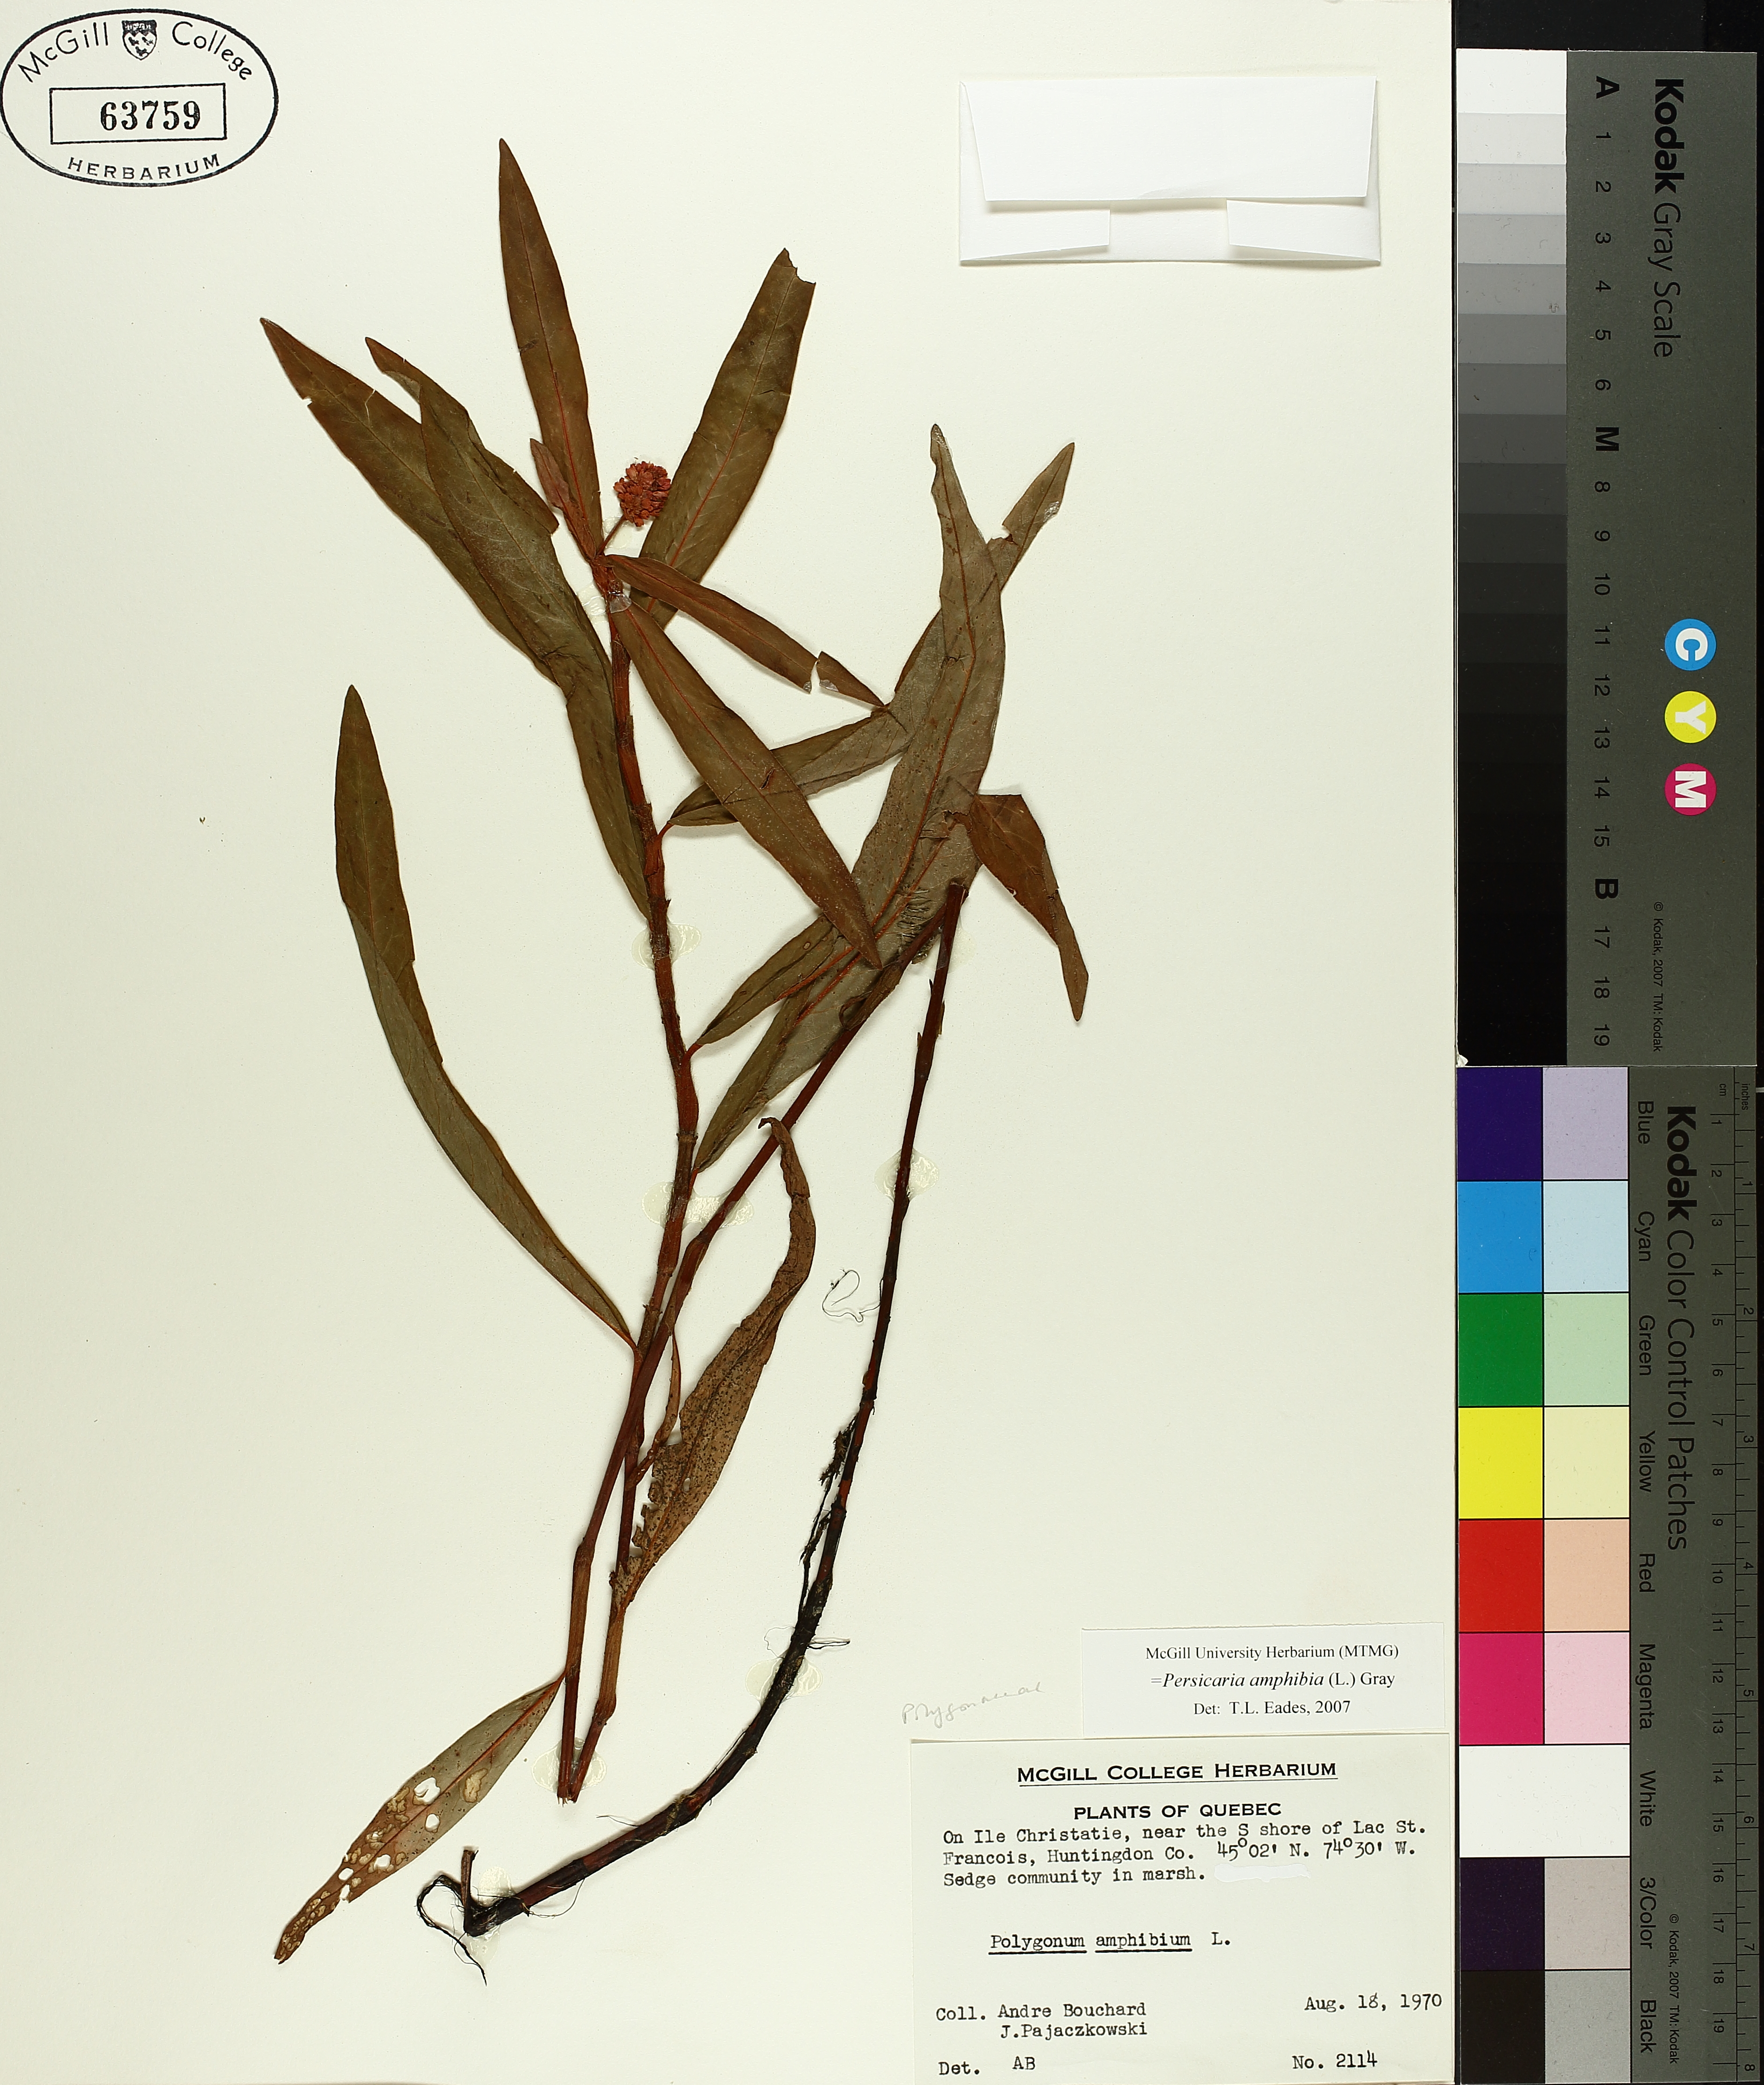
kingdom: Plantae
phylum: Tracheophyta
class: Magnoliopsida
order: Caryophyllales
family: Polygonaceae
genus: Persicaria
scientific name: Persicaria amphibia
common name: Amphibious bistort
